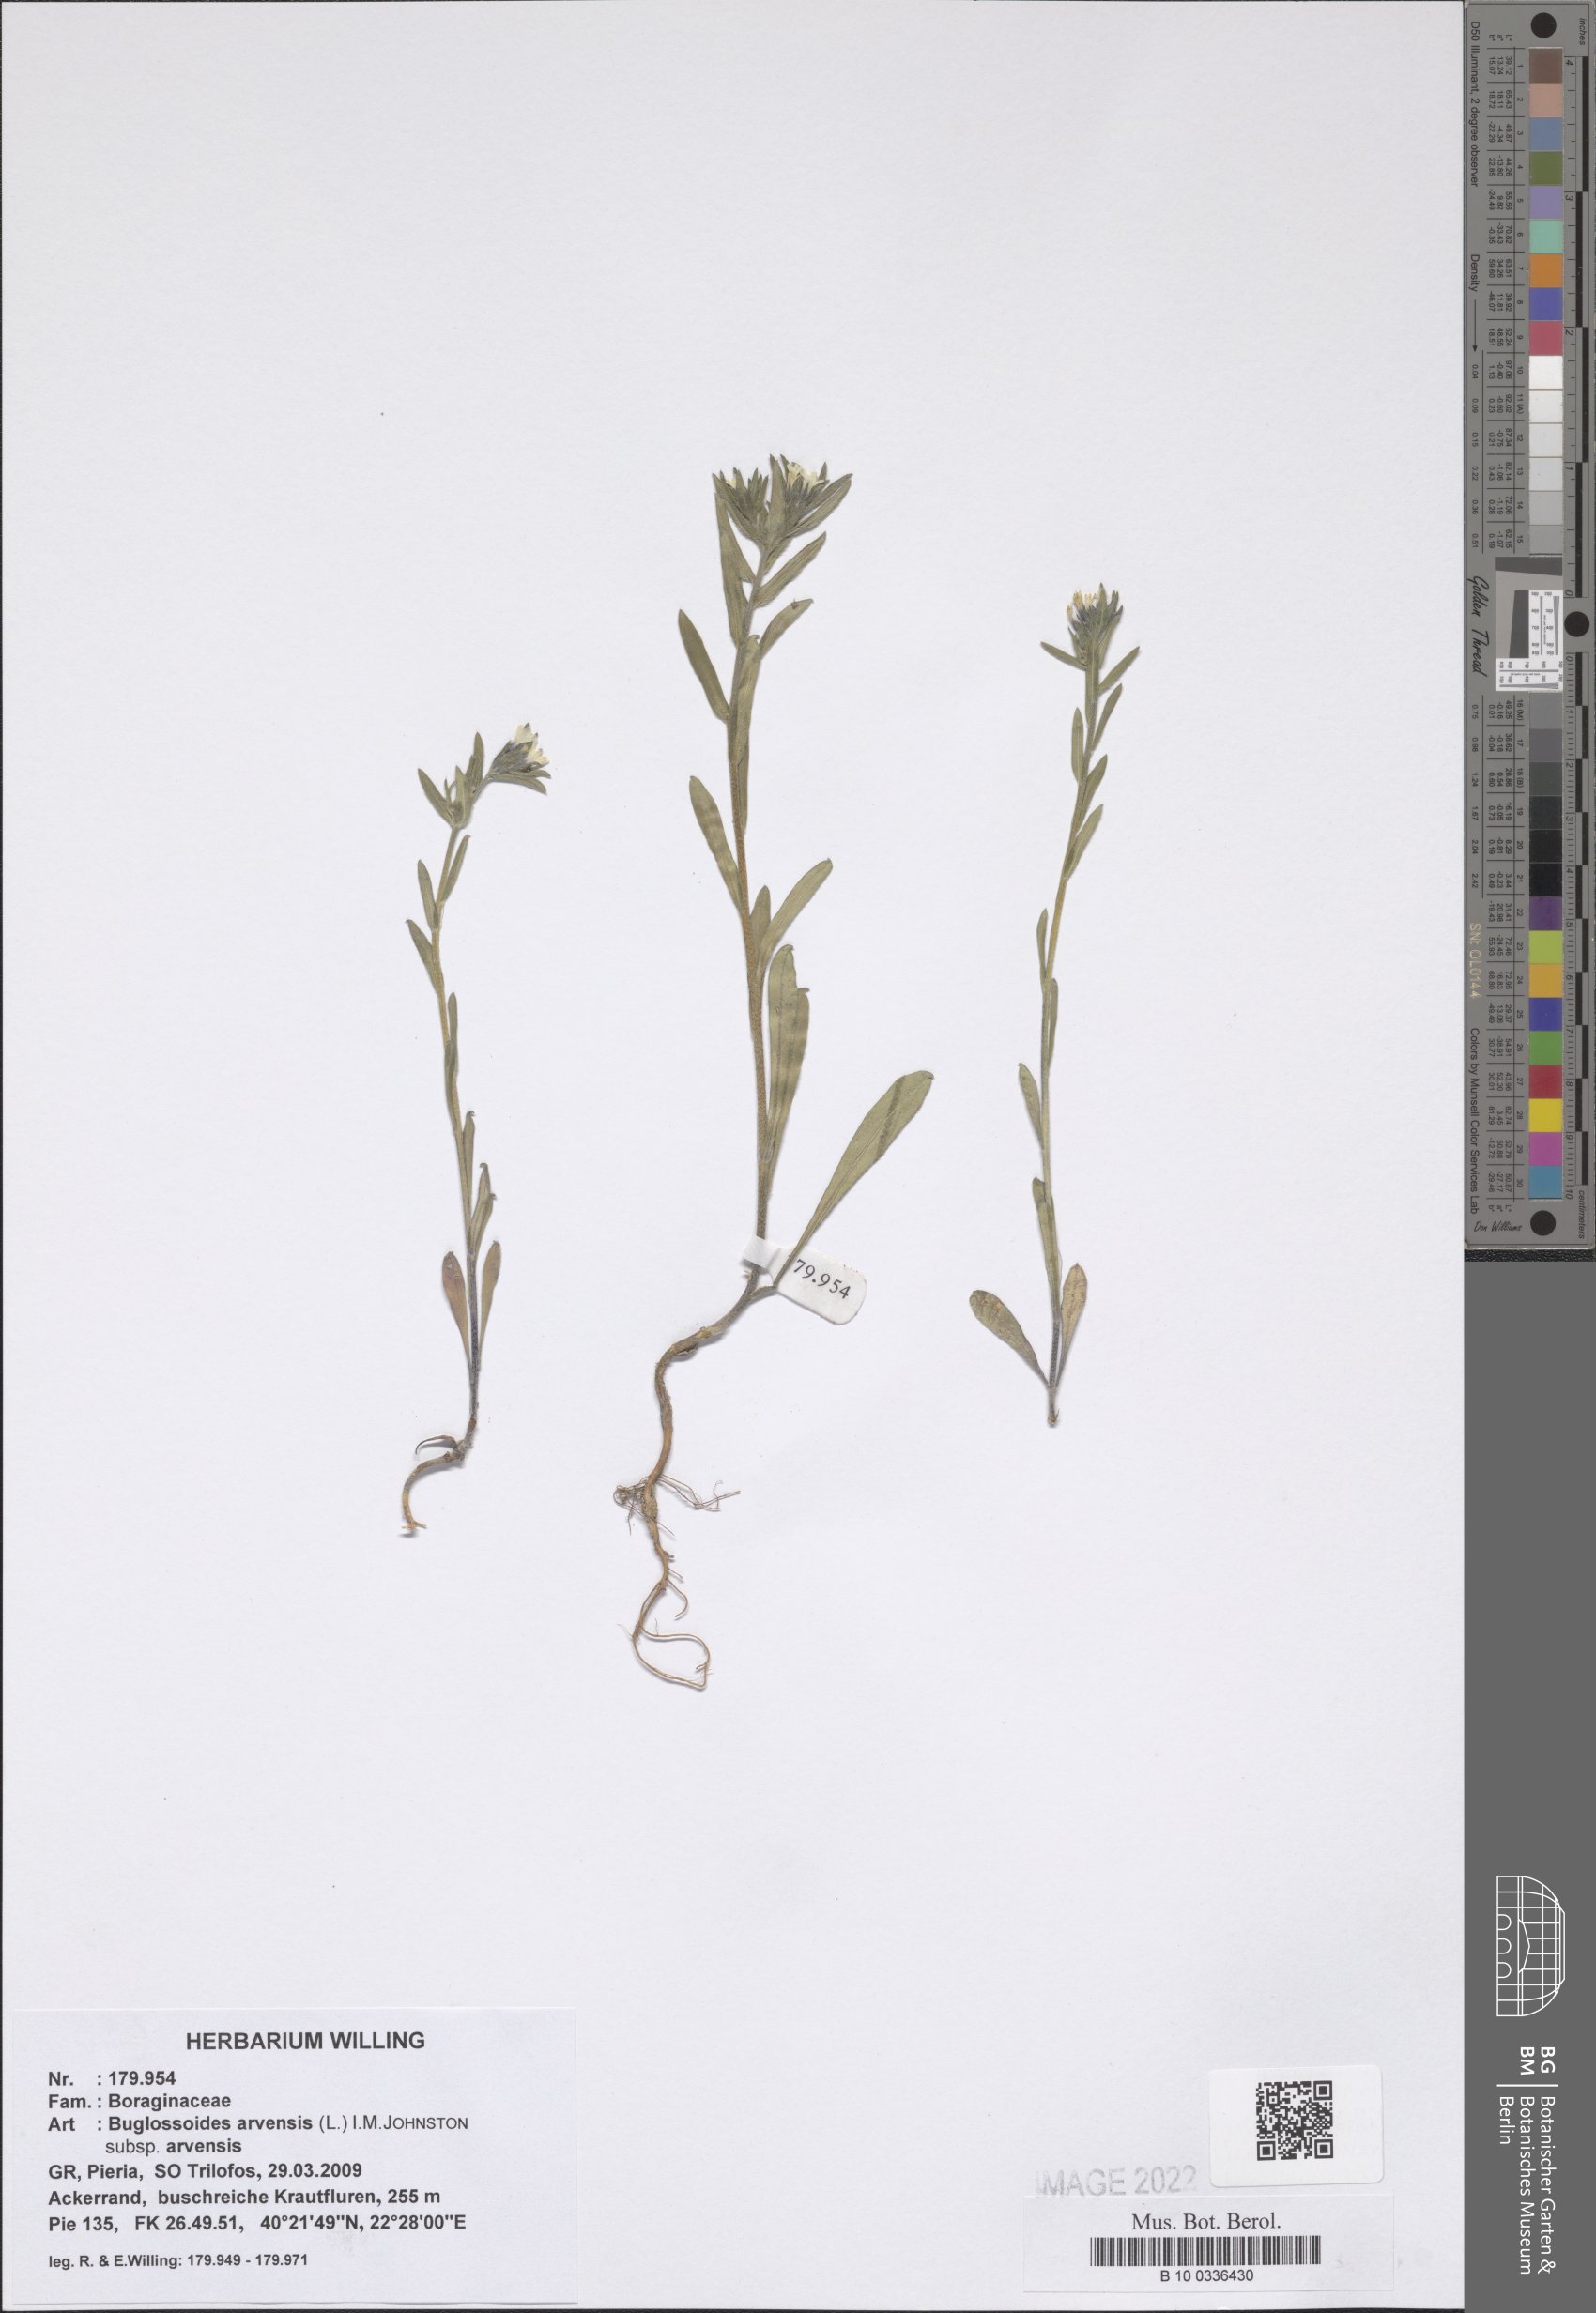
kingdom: Plantae
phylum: Tracheophyta
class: Magnoliopsida
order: Boraginales
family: Boraginaceae
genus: Buglossoides
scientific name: Buglossoides arvensis
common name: Corn gromwell
